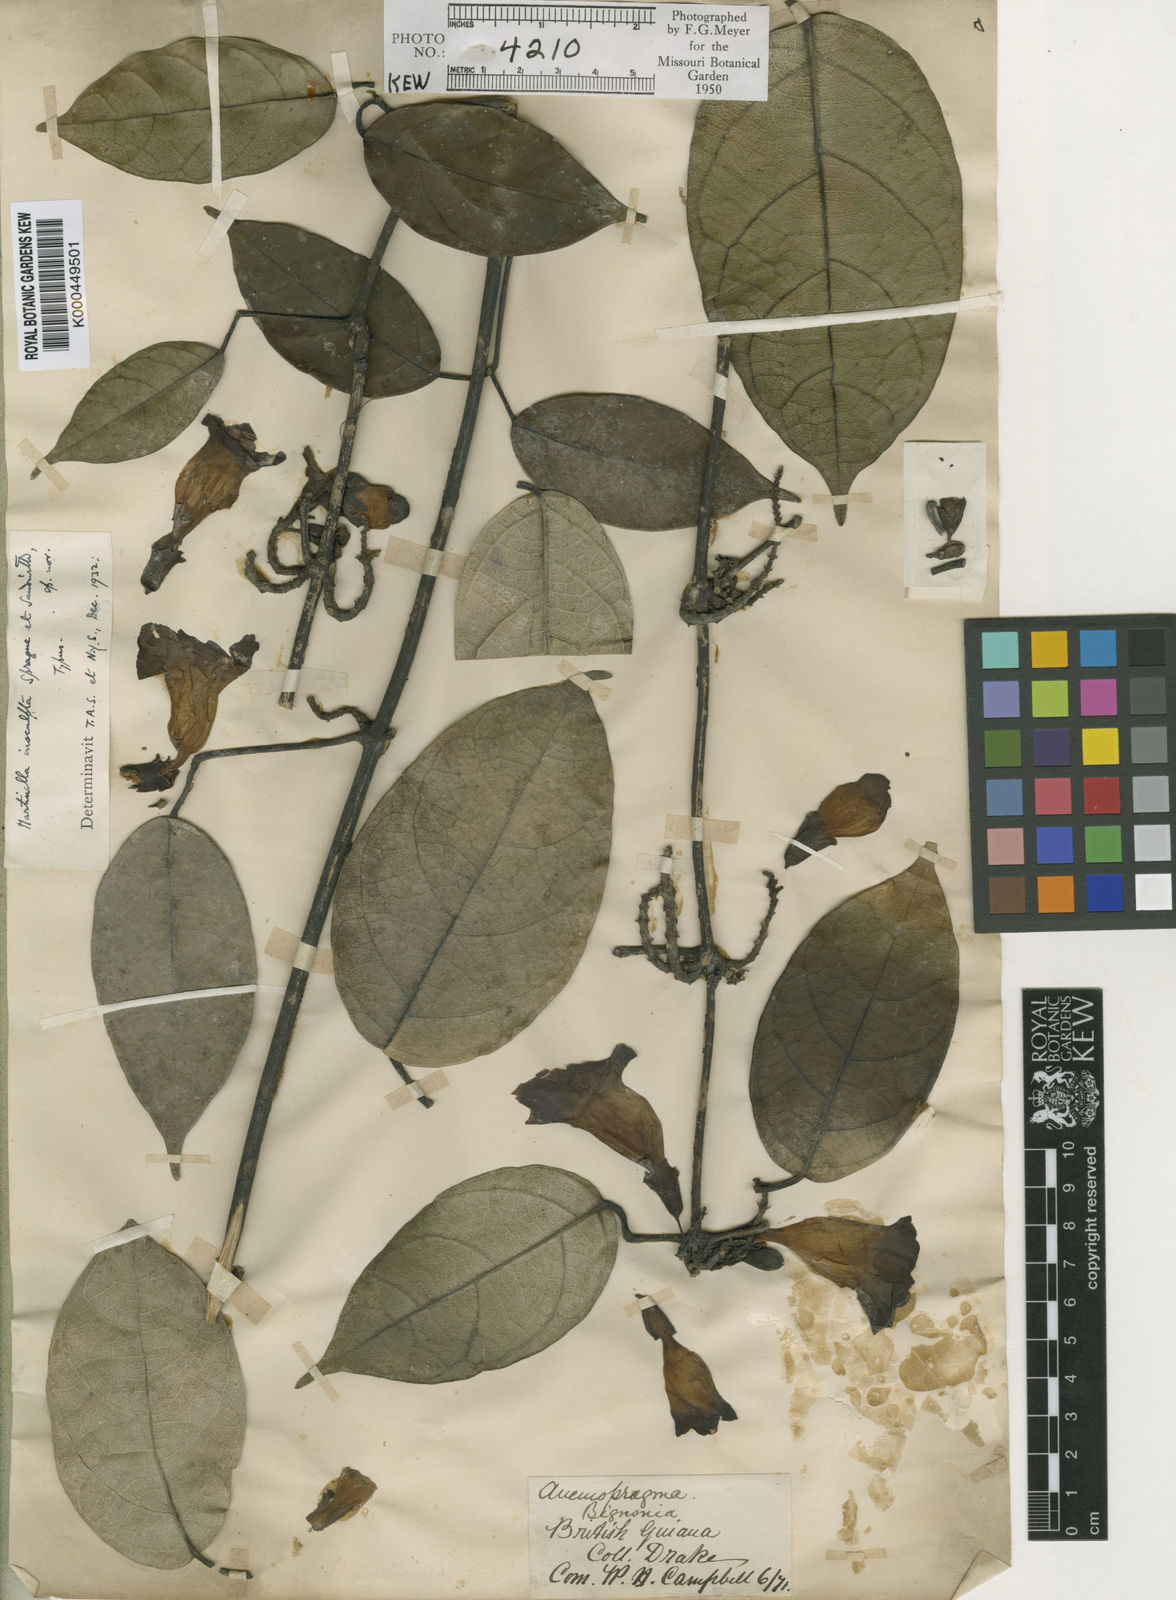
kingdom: Animalia
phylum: Arthropoda
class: Insecta
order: Coleoptera
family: Chrysomelidae
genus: Martinella
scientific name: Martinella obovata
